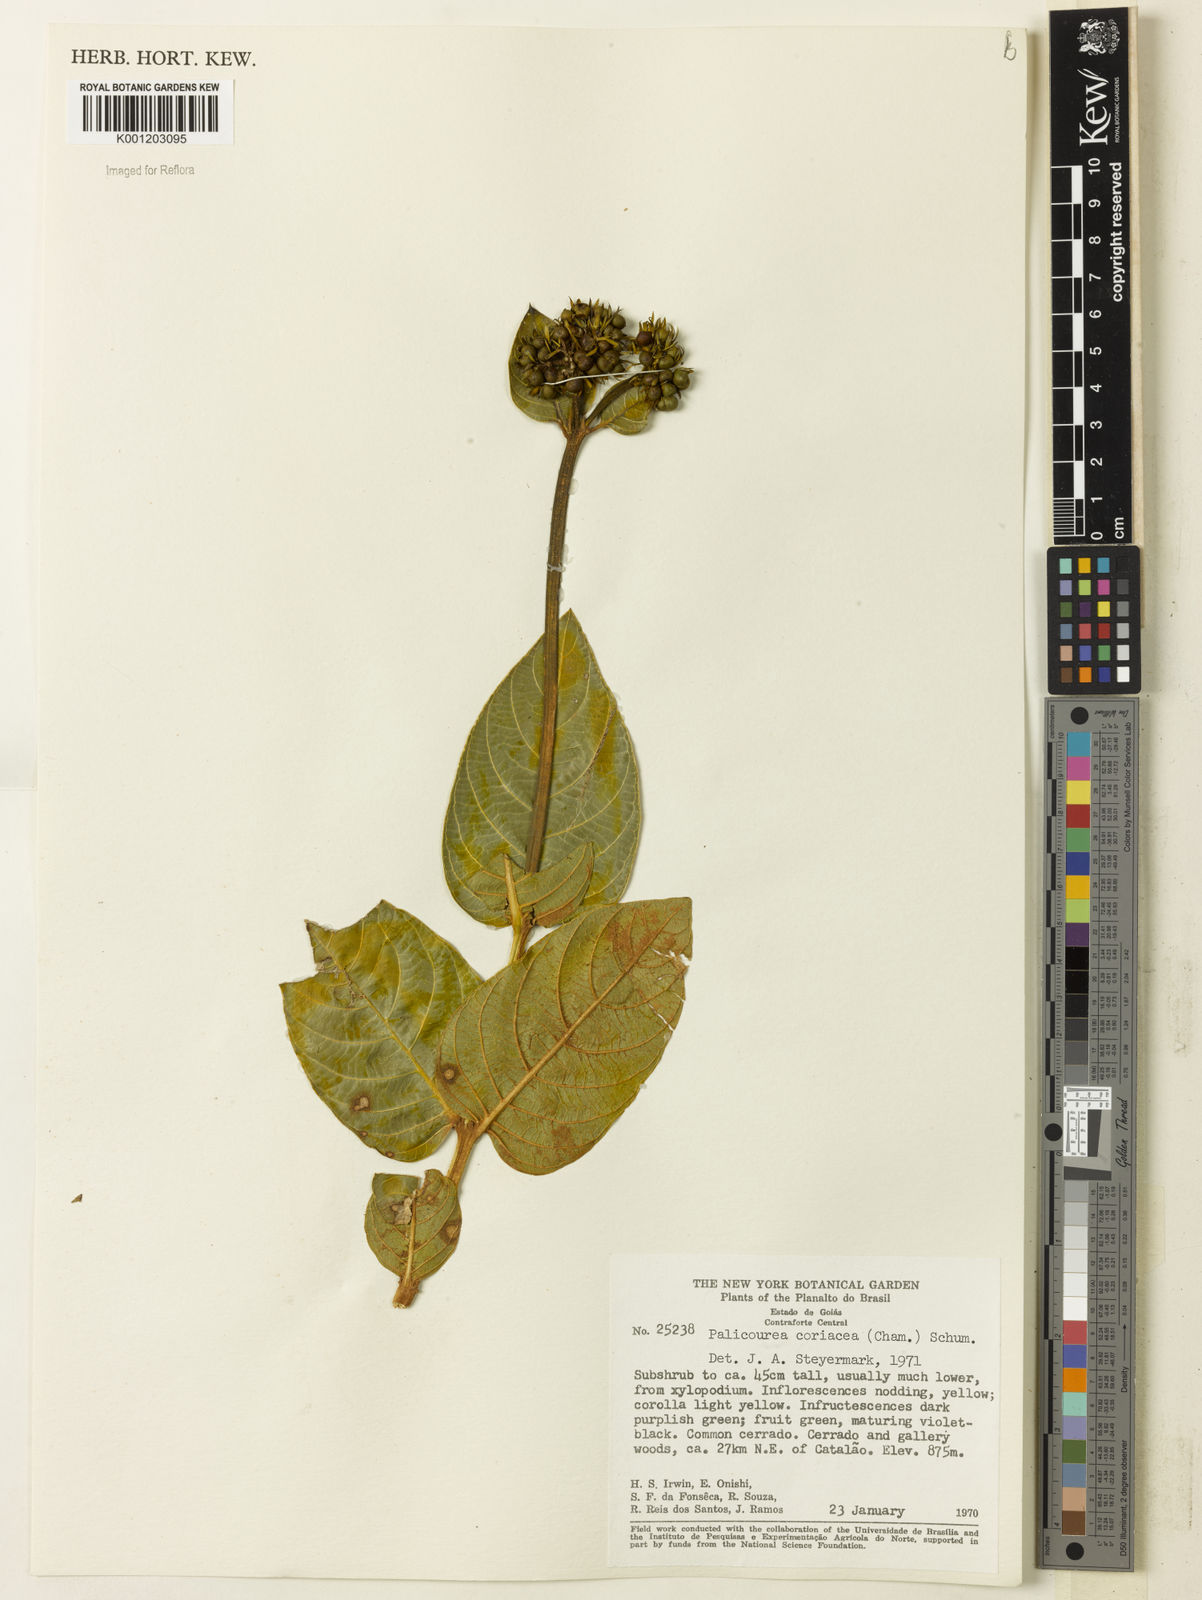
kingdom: Plantae
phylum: Tracheophyta
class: Magnoliopsida
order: Gentianales
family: Rubiaceae
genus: Rudgea
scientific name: Rudgea erythrocarpa
